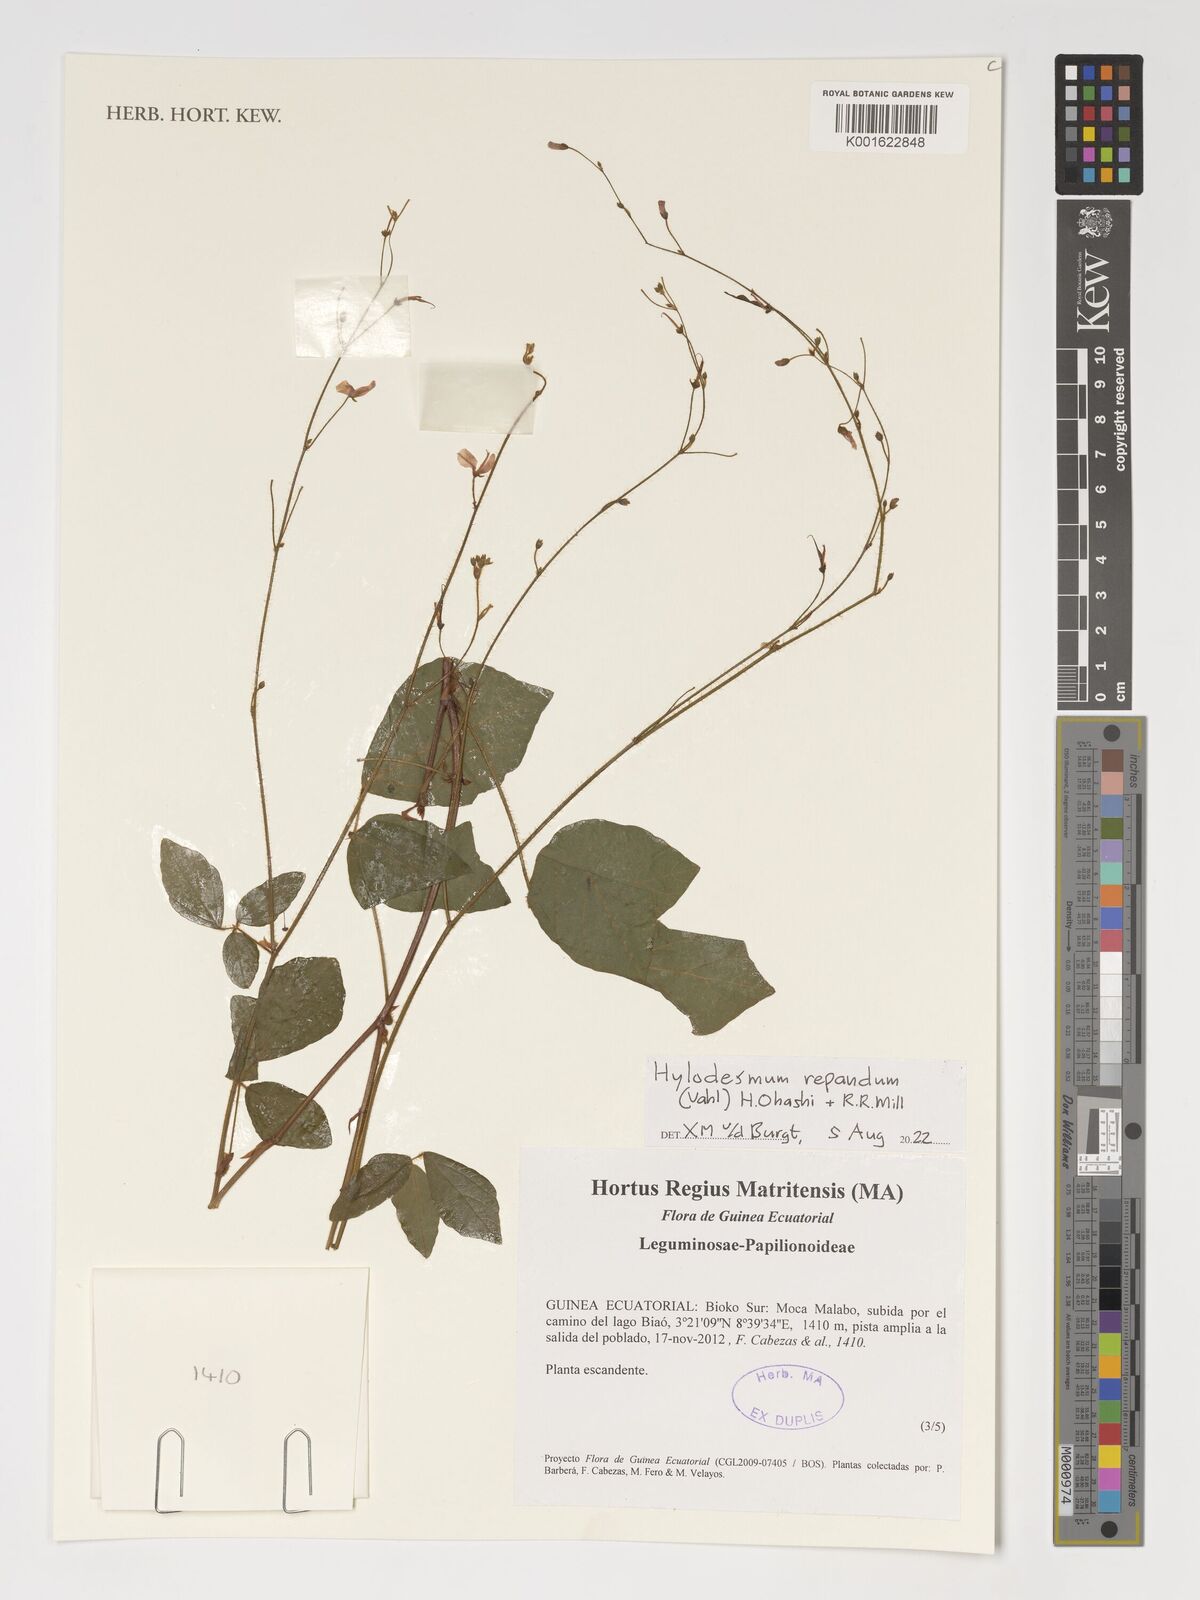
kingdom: Plantae
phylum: Tracheophyta
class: Magnoliopsida
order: Fabales
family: Fabaceae
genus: Hylodesmum
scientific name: Hylodesmum repandum
